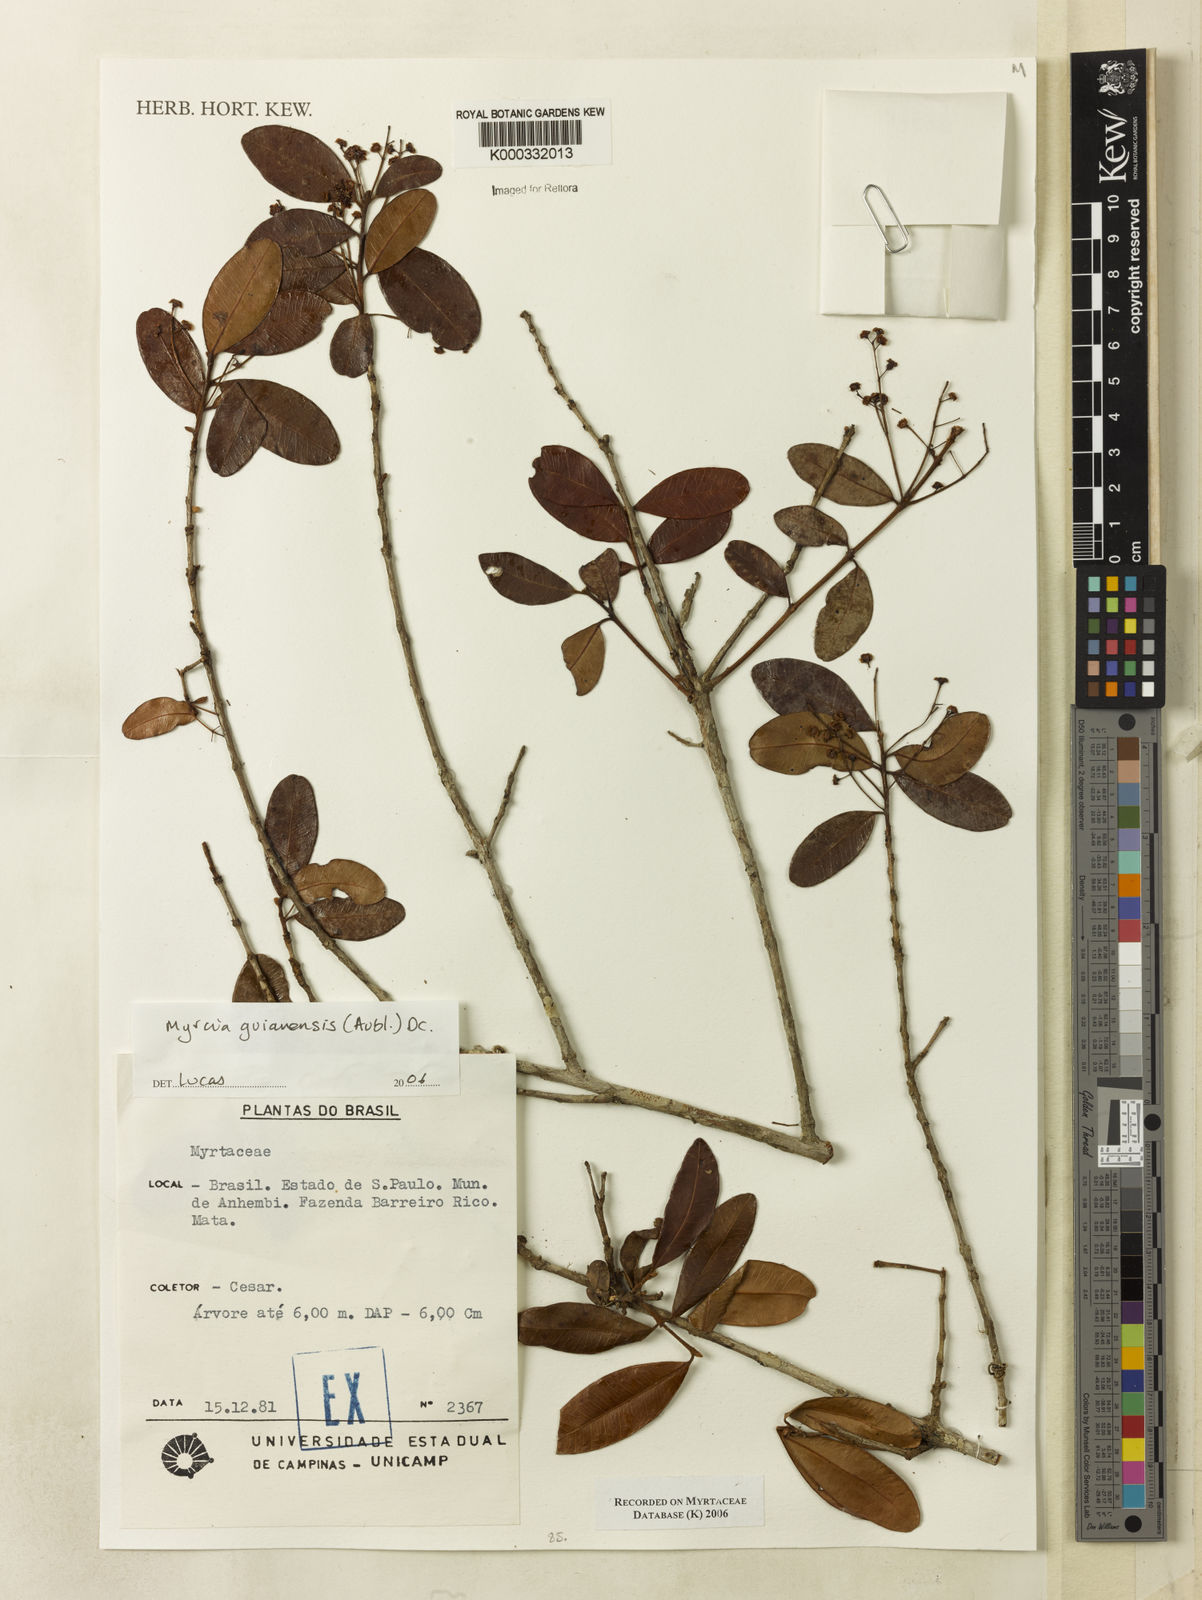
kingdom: Plantae
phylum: Tracheophyta
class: Magnoliopsida
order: Myrtales
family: Myrtaceae
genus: Myrcia
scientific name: Myrcia guianensis
